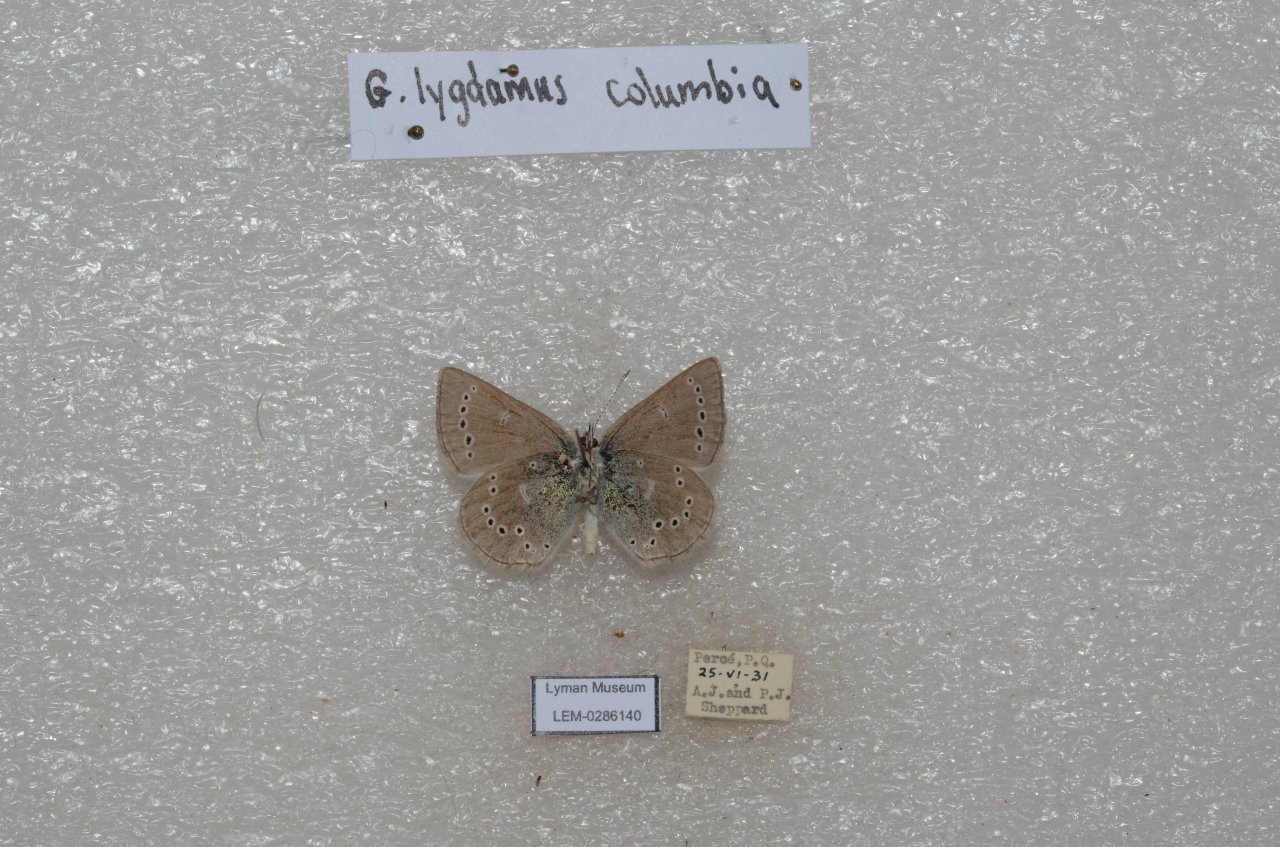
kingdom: Animalia
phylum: Arthropoda
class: Insecta
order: Lepidoptera
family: Lycaenidae
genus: Glaucopsyche
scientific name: Glaucopsyche lygdamus
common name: Silvery Blue
